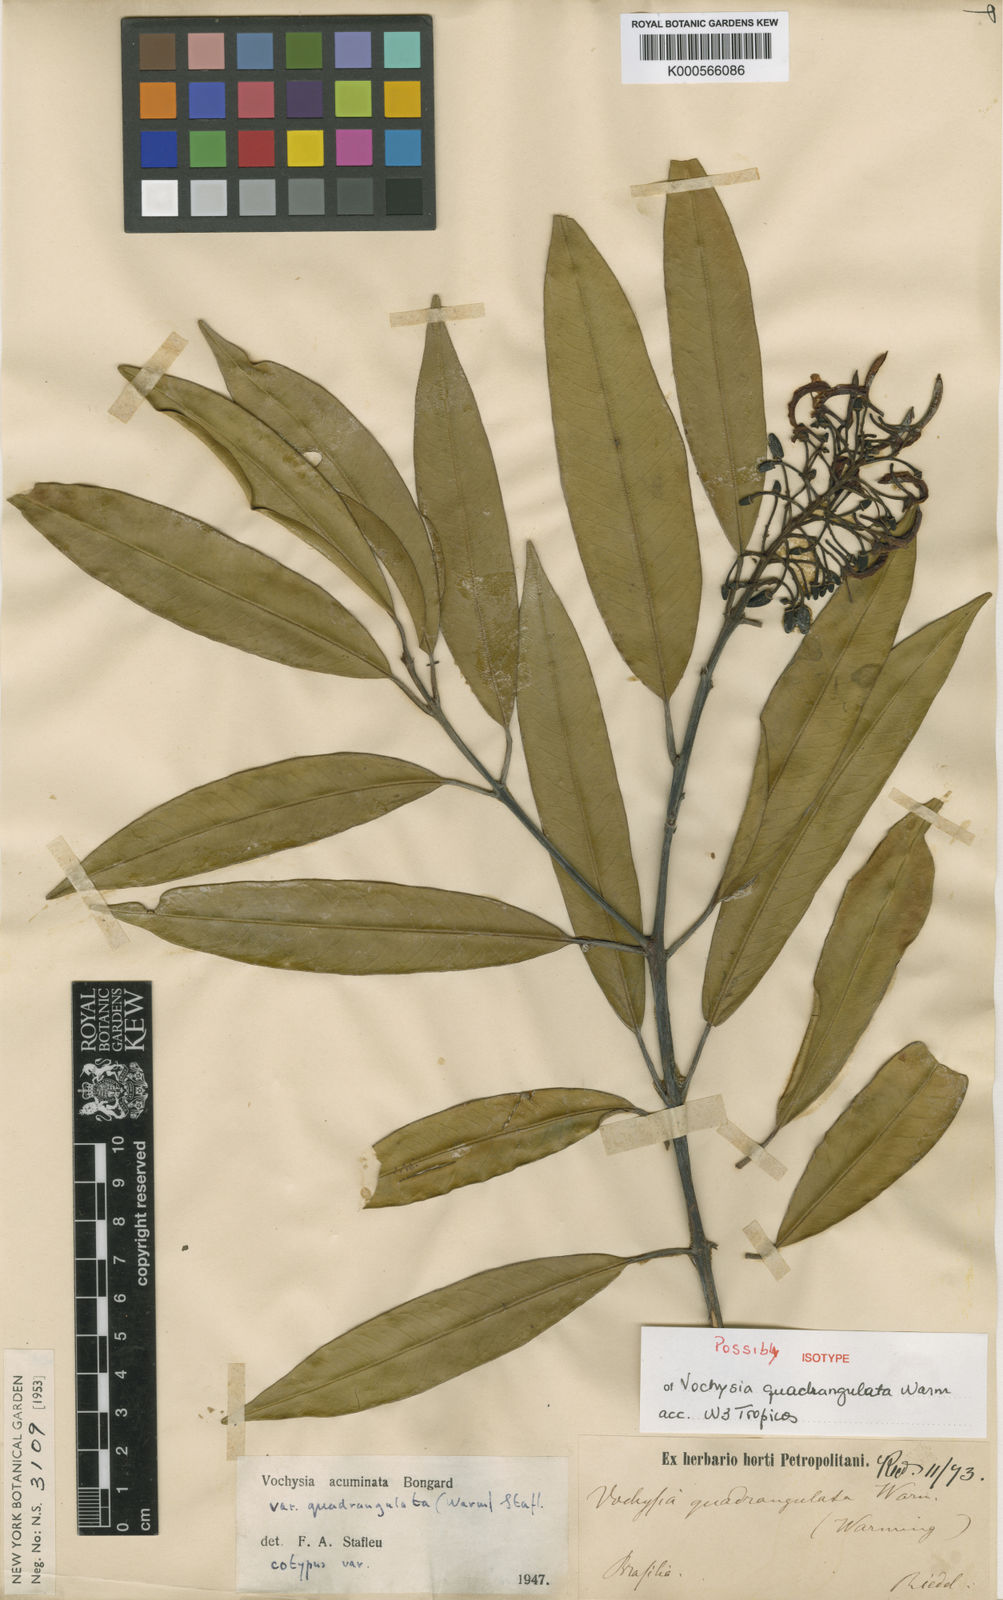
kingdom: Plantae
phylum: Tracheophyta
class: Magnoliopsida
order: Myrtales
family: Vochysiaceae
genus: Vochysia
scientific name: Vochysia acuminata
